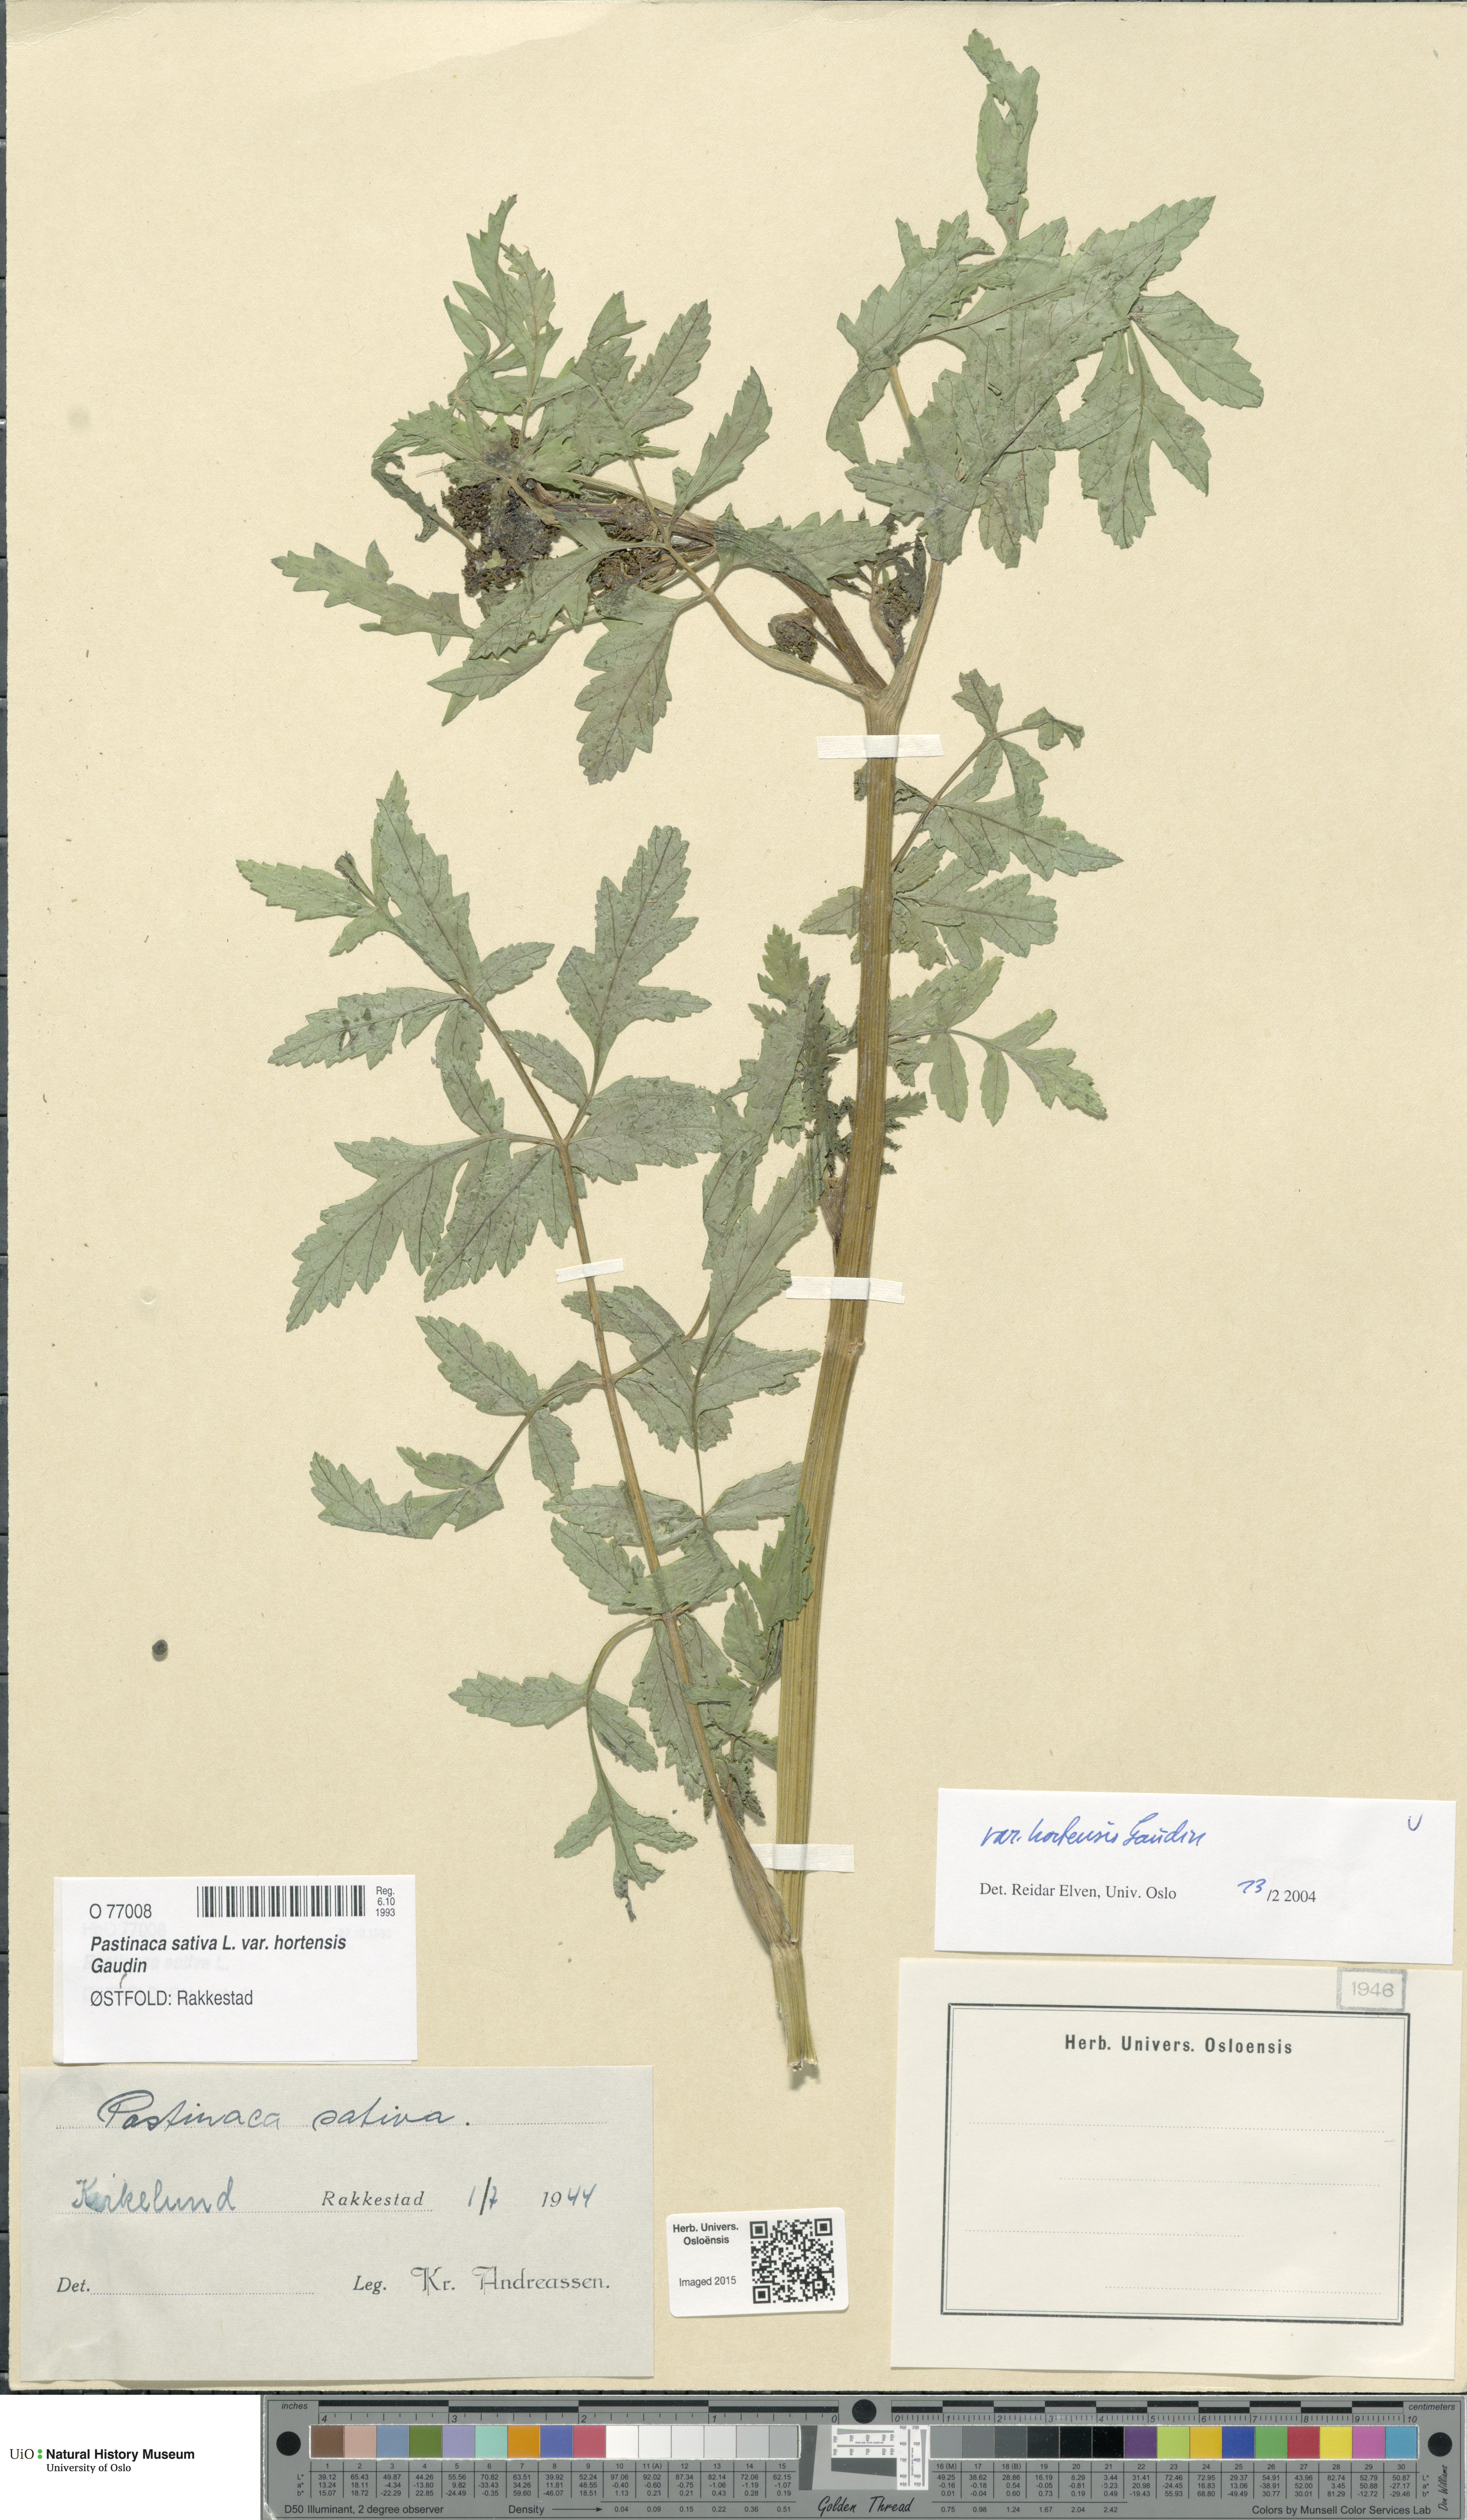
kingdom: Plantae
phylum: Tracheophyta
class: Magnoliopsida
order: Apiales
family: Apiaceae
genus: Pastinaca
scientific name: Pastinaca sativa
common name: Wild parsnip
